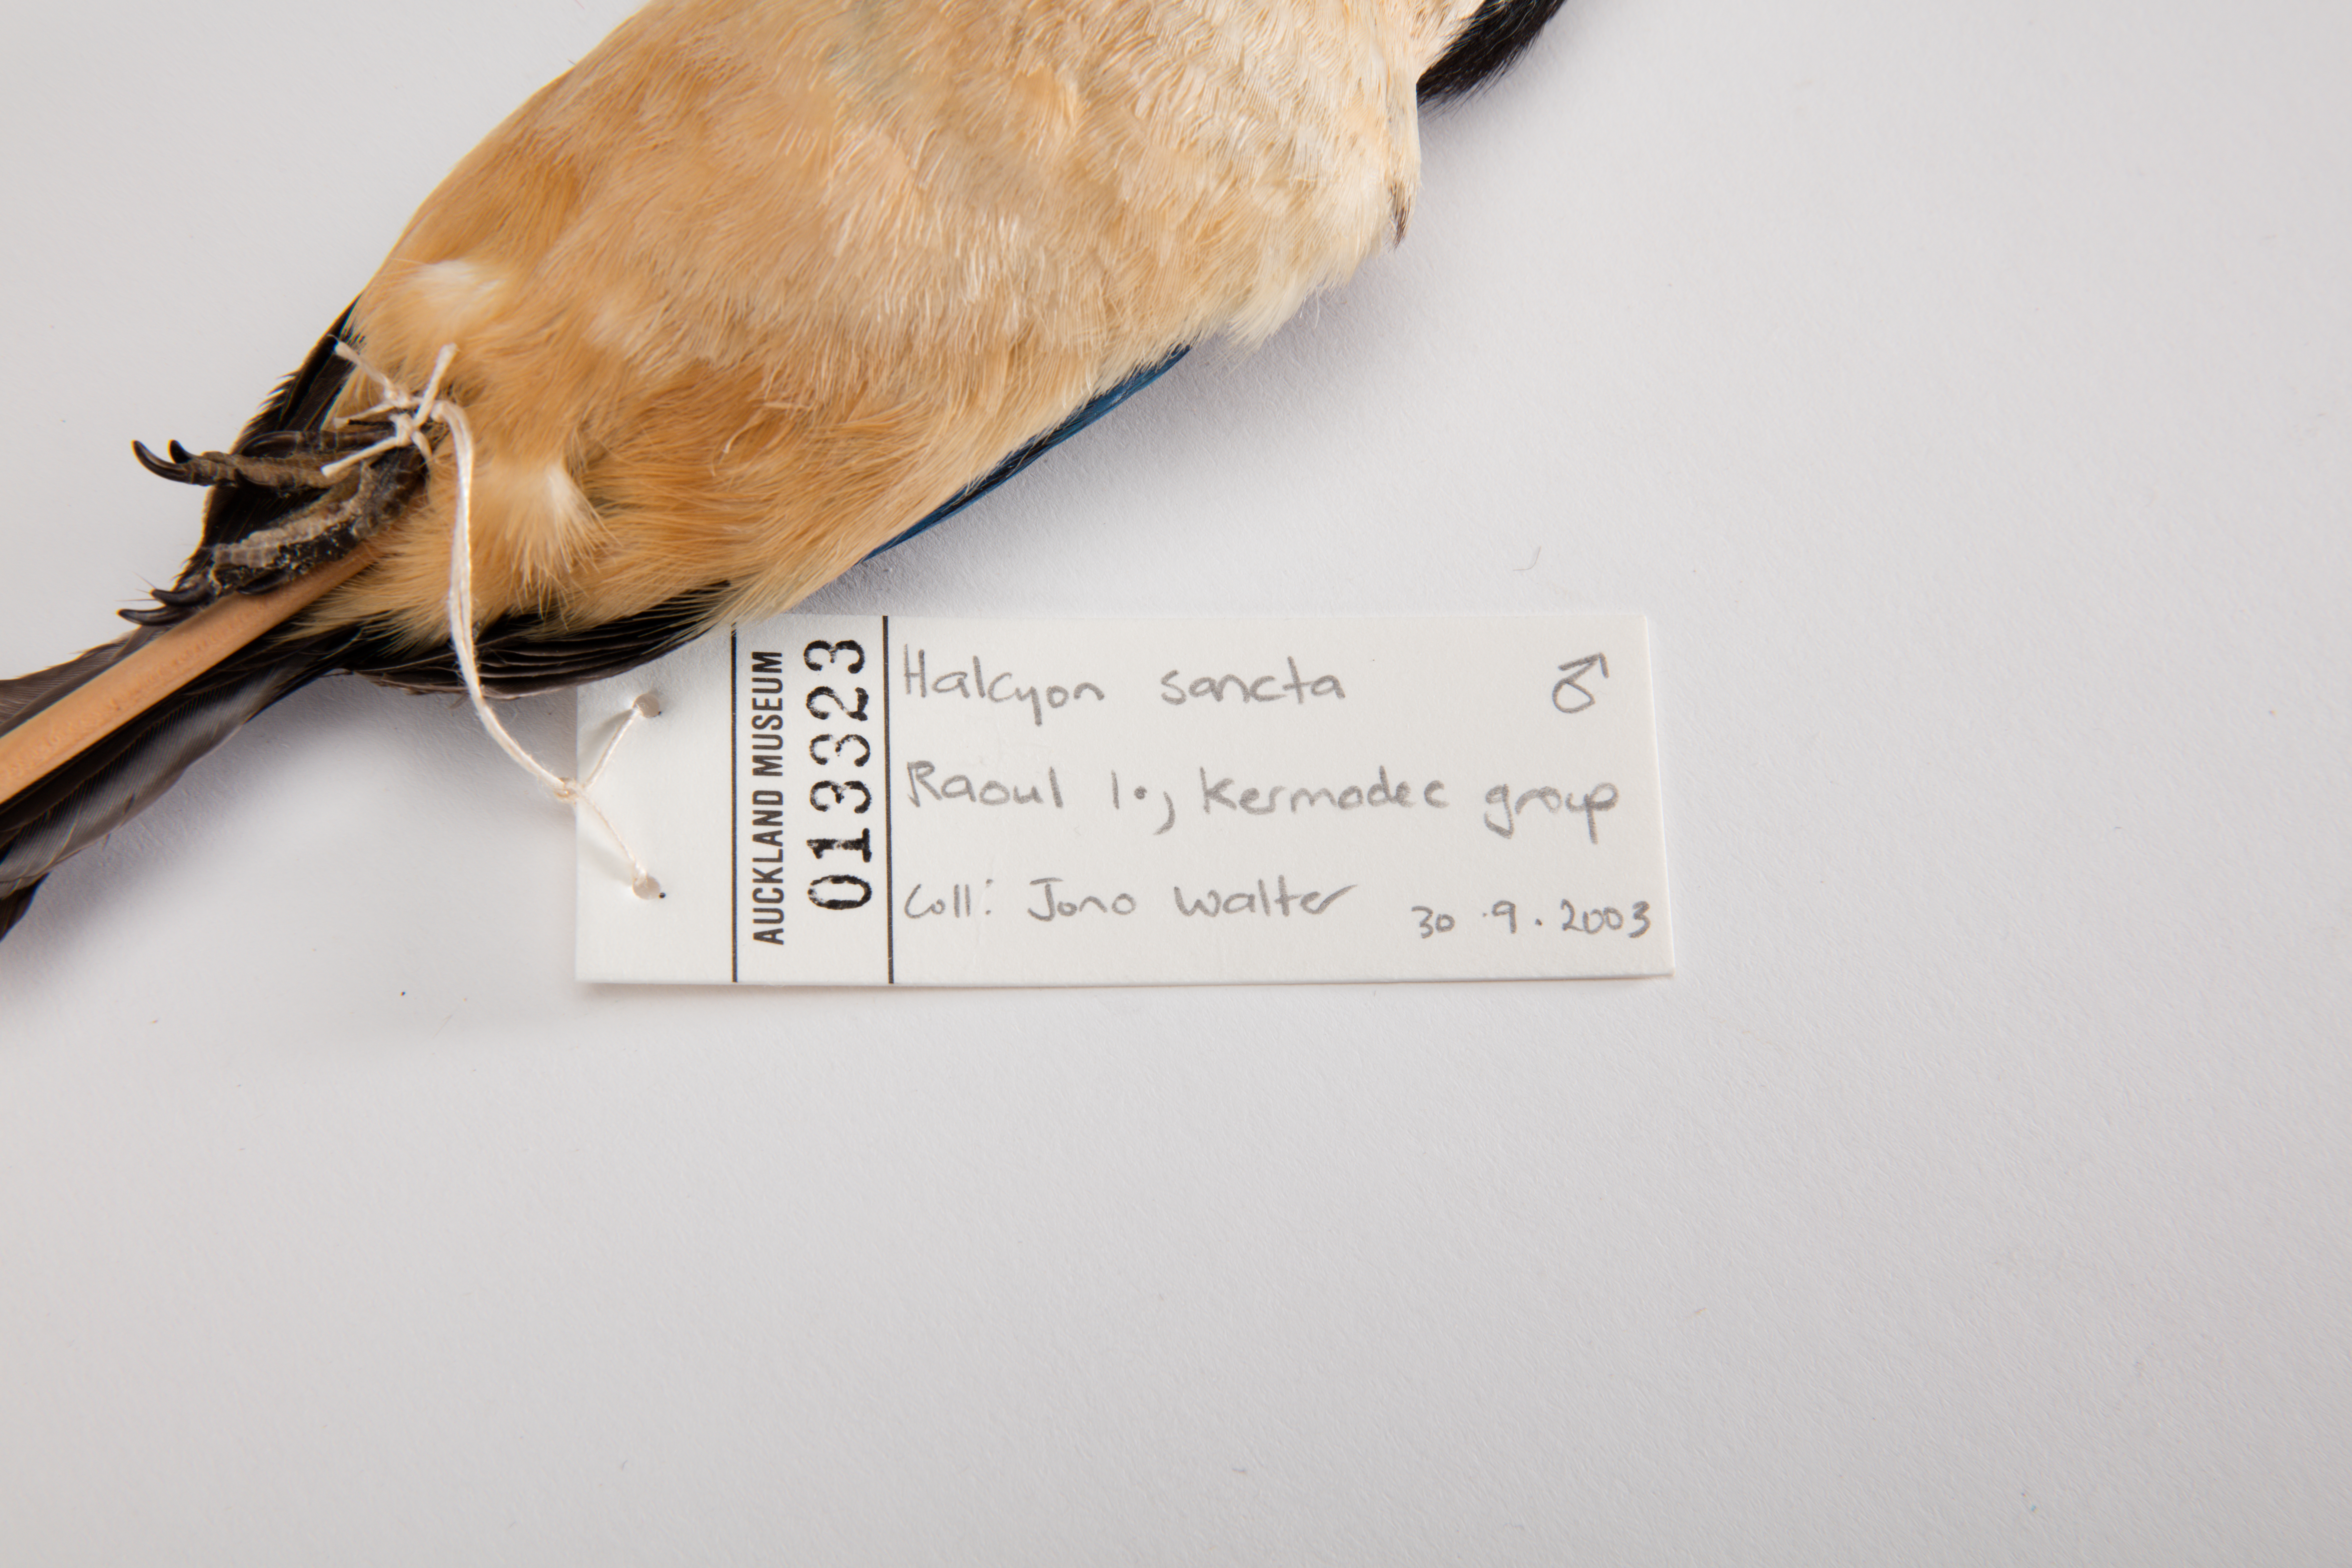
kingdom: Animalia
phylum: Chordata
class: Aves
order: Coraciiformes
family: Alcedinidae
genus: Todiramphus
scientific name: Todiramphus sanctus
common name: Sacred kingfisher
